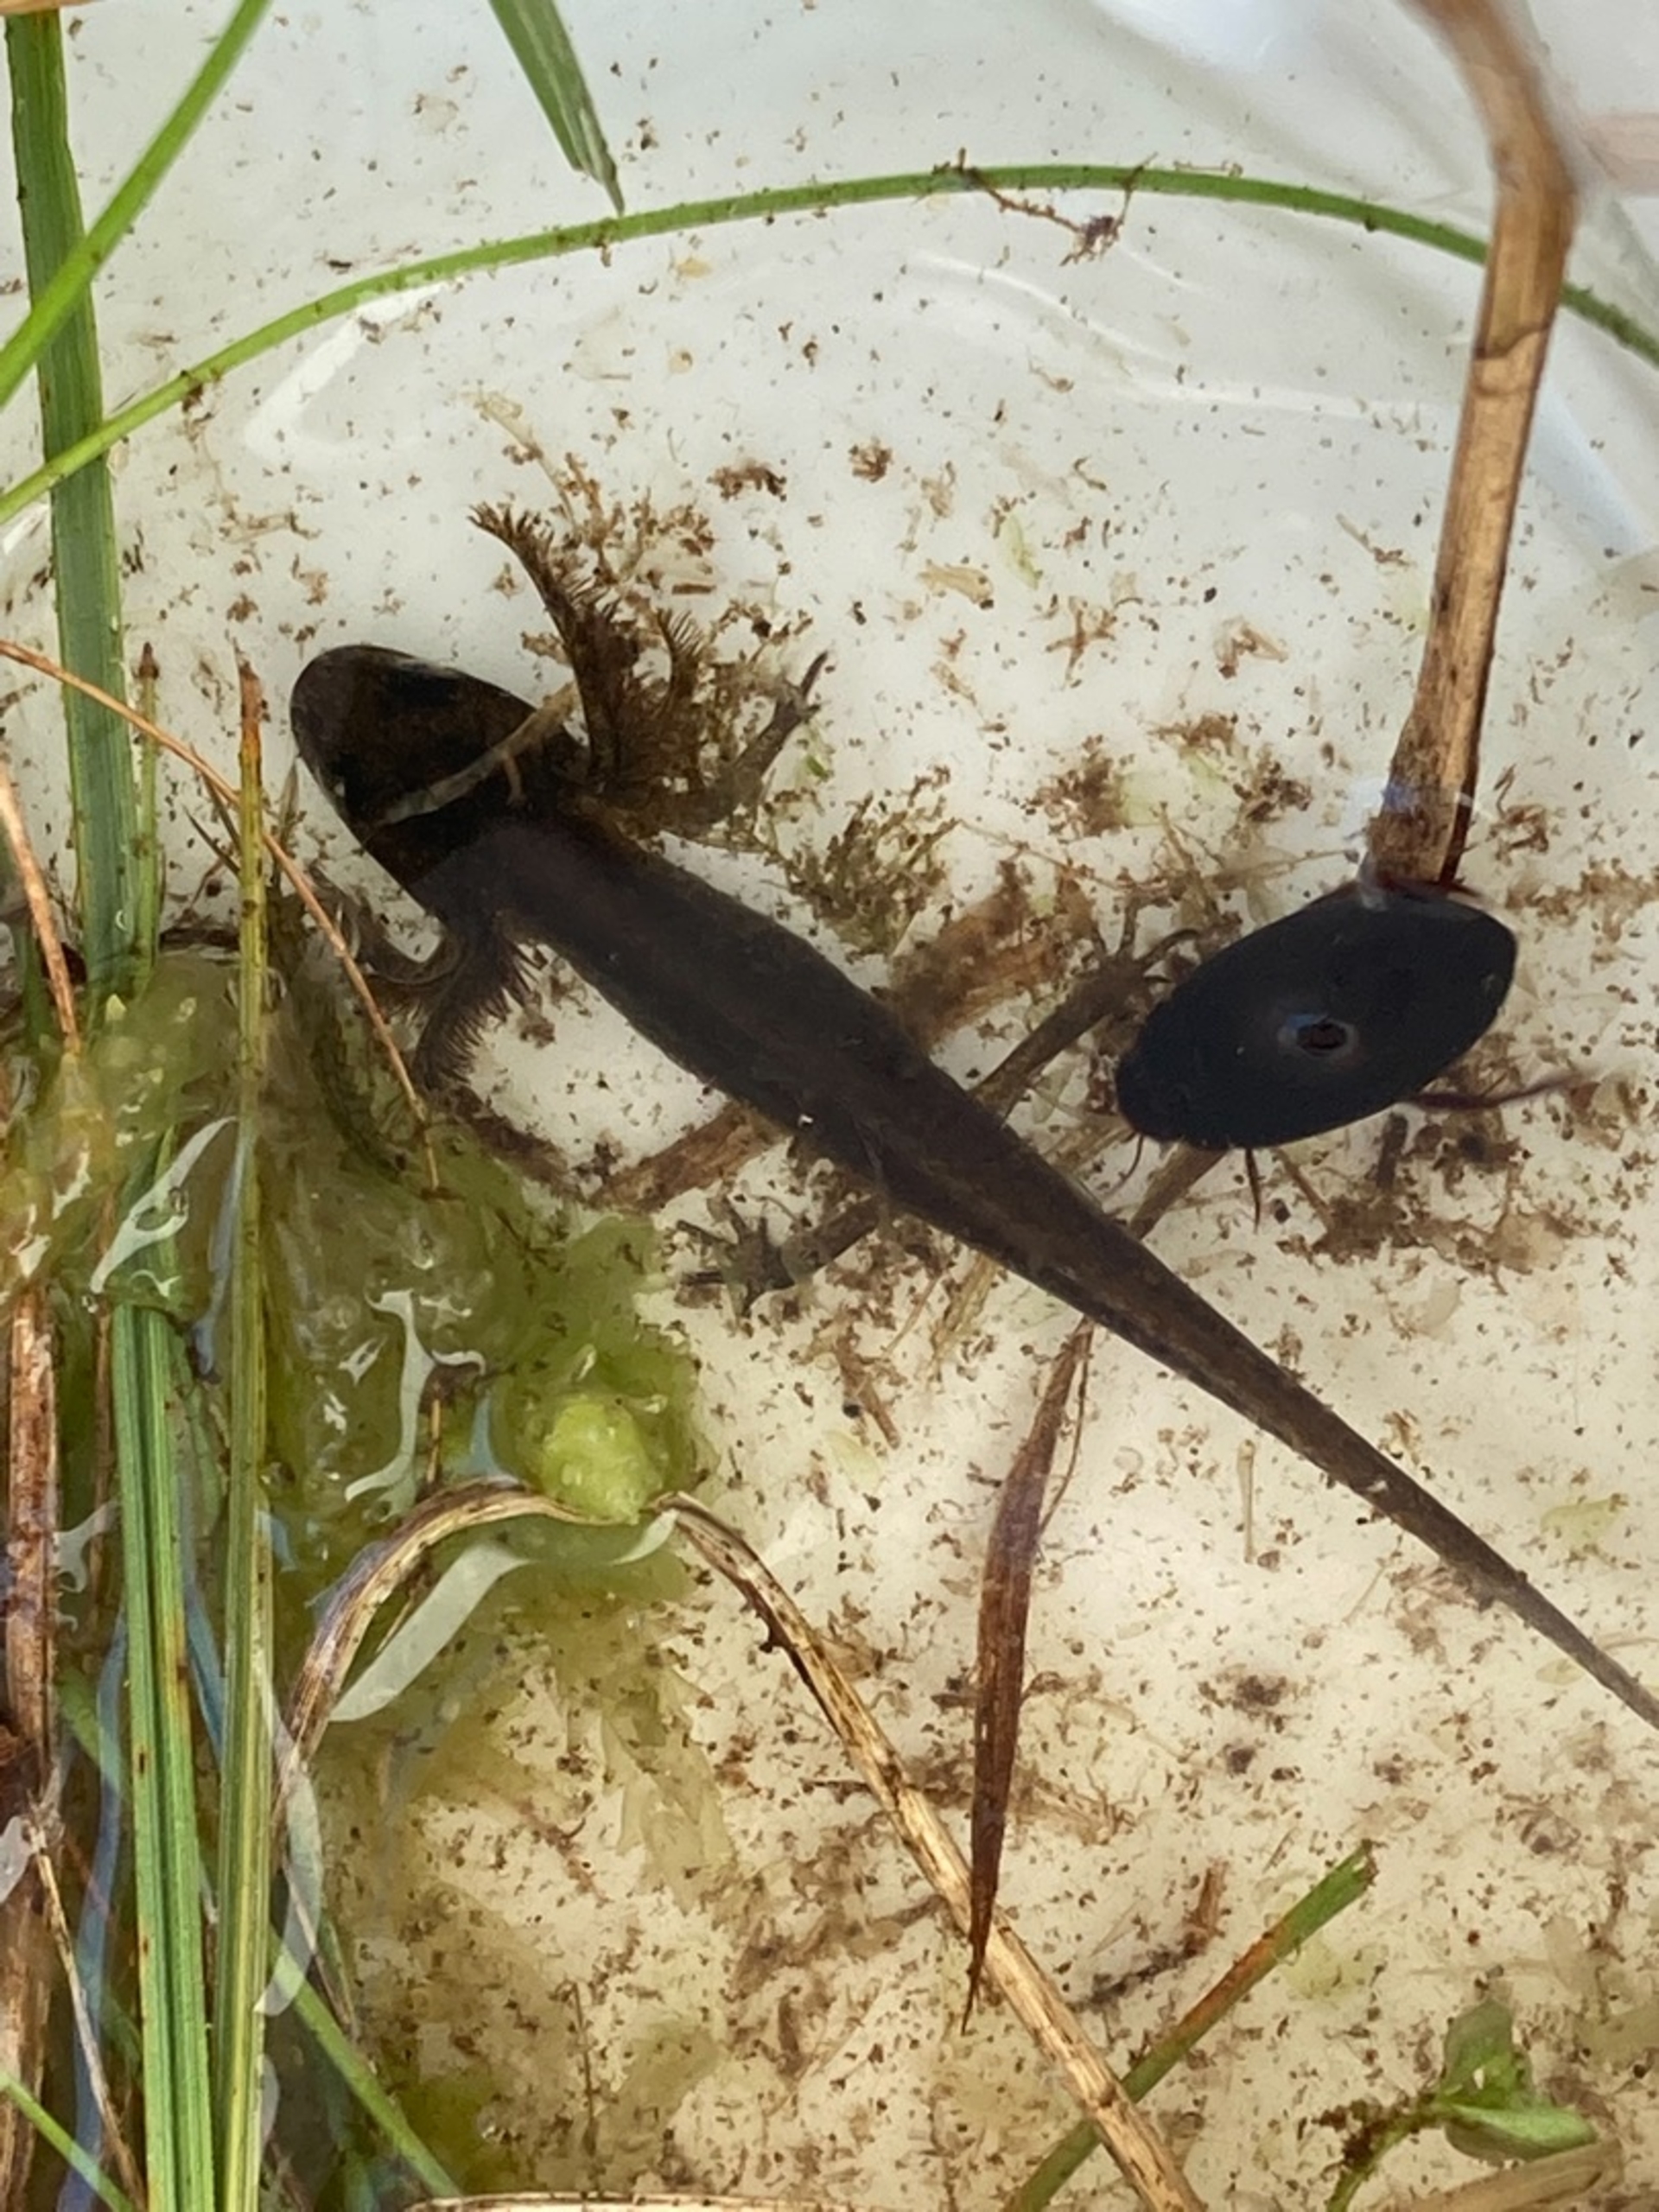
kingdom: Animalia
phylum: Chordata
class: Amphibia
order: Caudata
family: Salamandridae
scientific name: Salamandridae
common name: Egentlige salamandre
